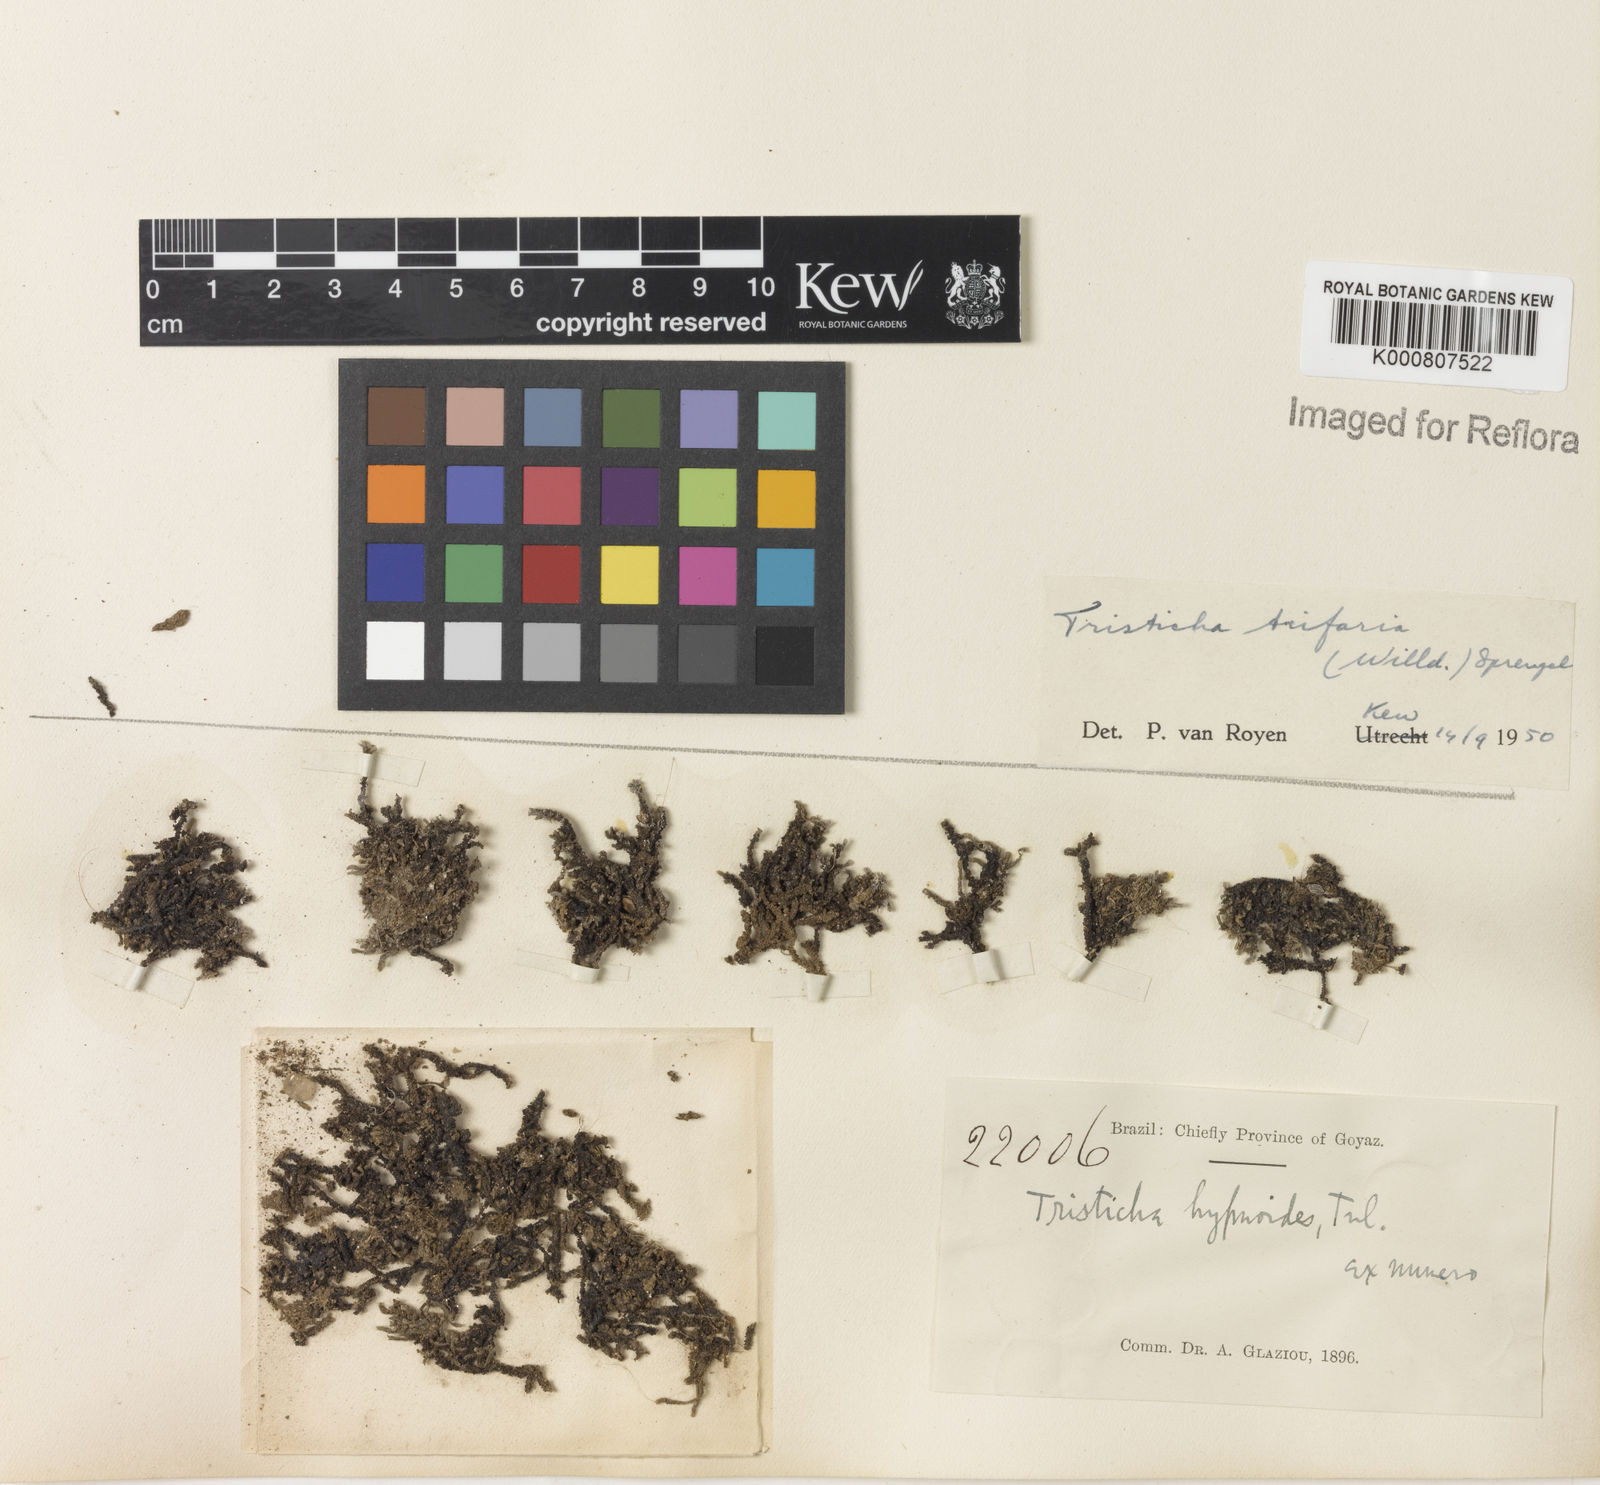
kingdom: Plantae
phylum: Tracheophyta
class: Magnoliopsida
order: Malpighiales
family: Podostemaceae
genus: Tristicha
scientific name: Tristicha trifaria
